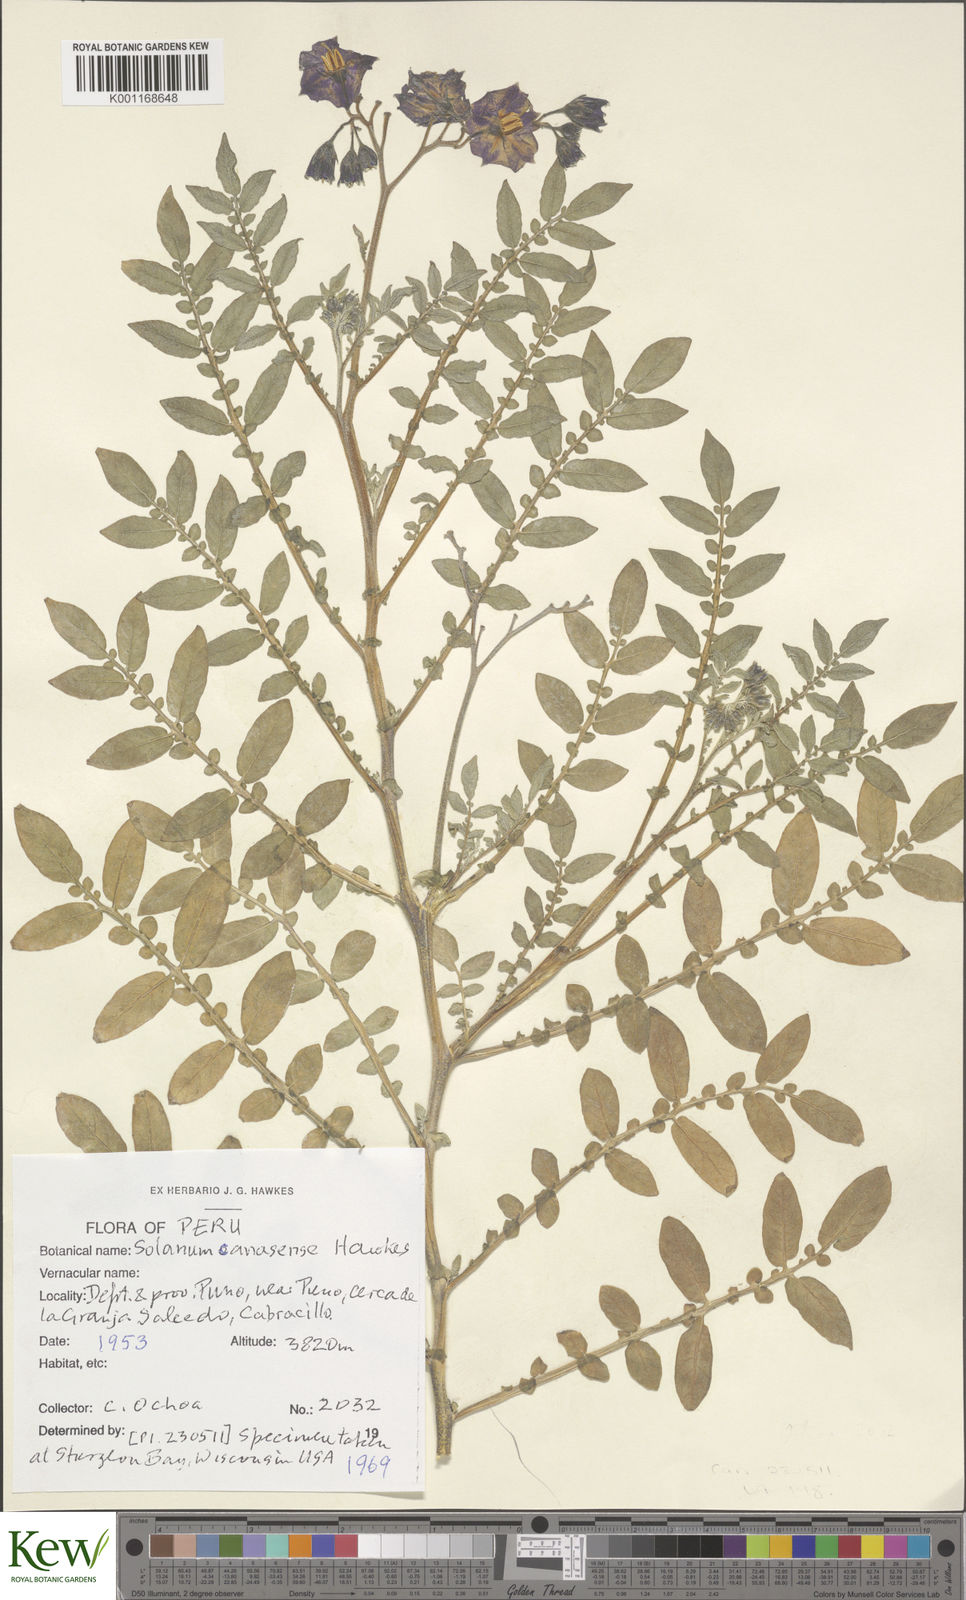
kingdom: Plantae
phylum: Tracheophyta
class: Magnoliopsida
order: Solanales
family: Solanaceae
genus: Solanum
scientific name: Solanum candolleanum
